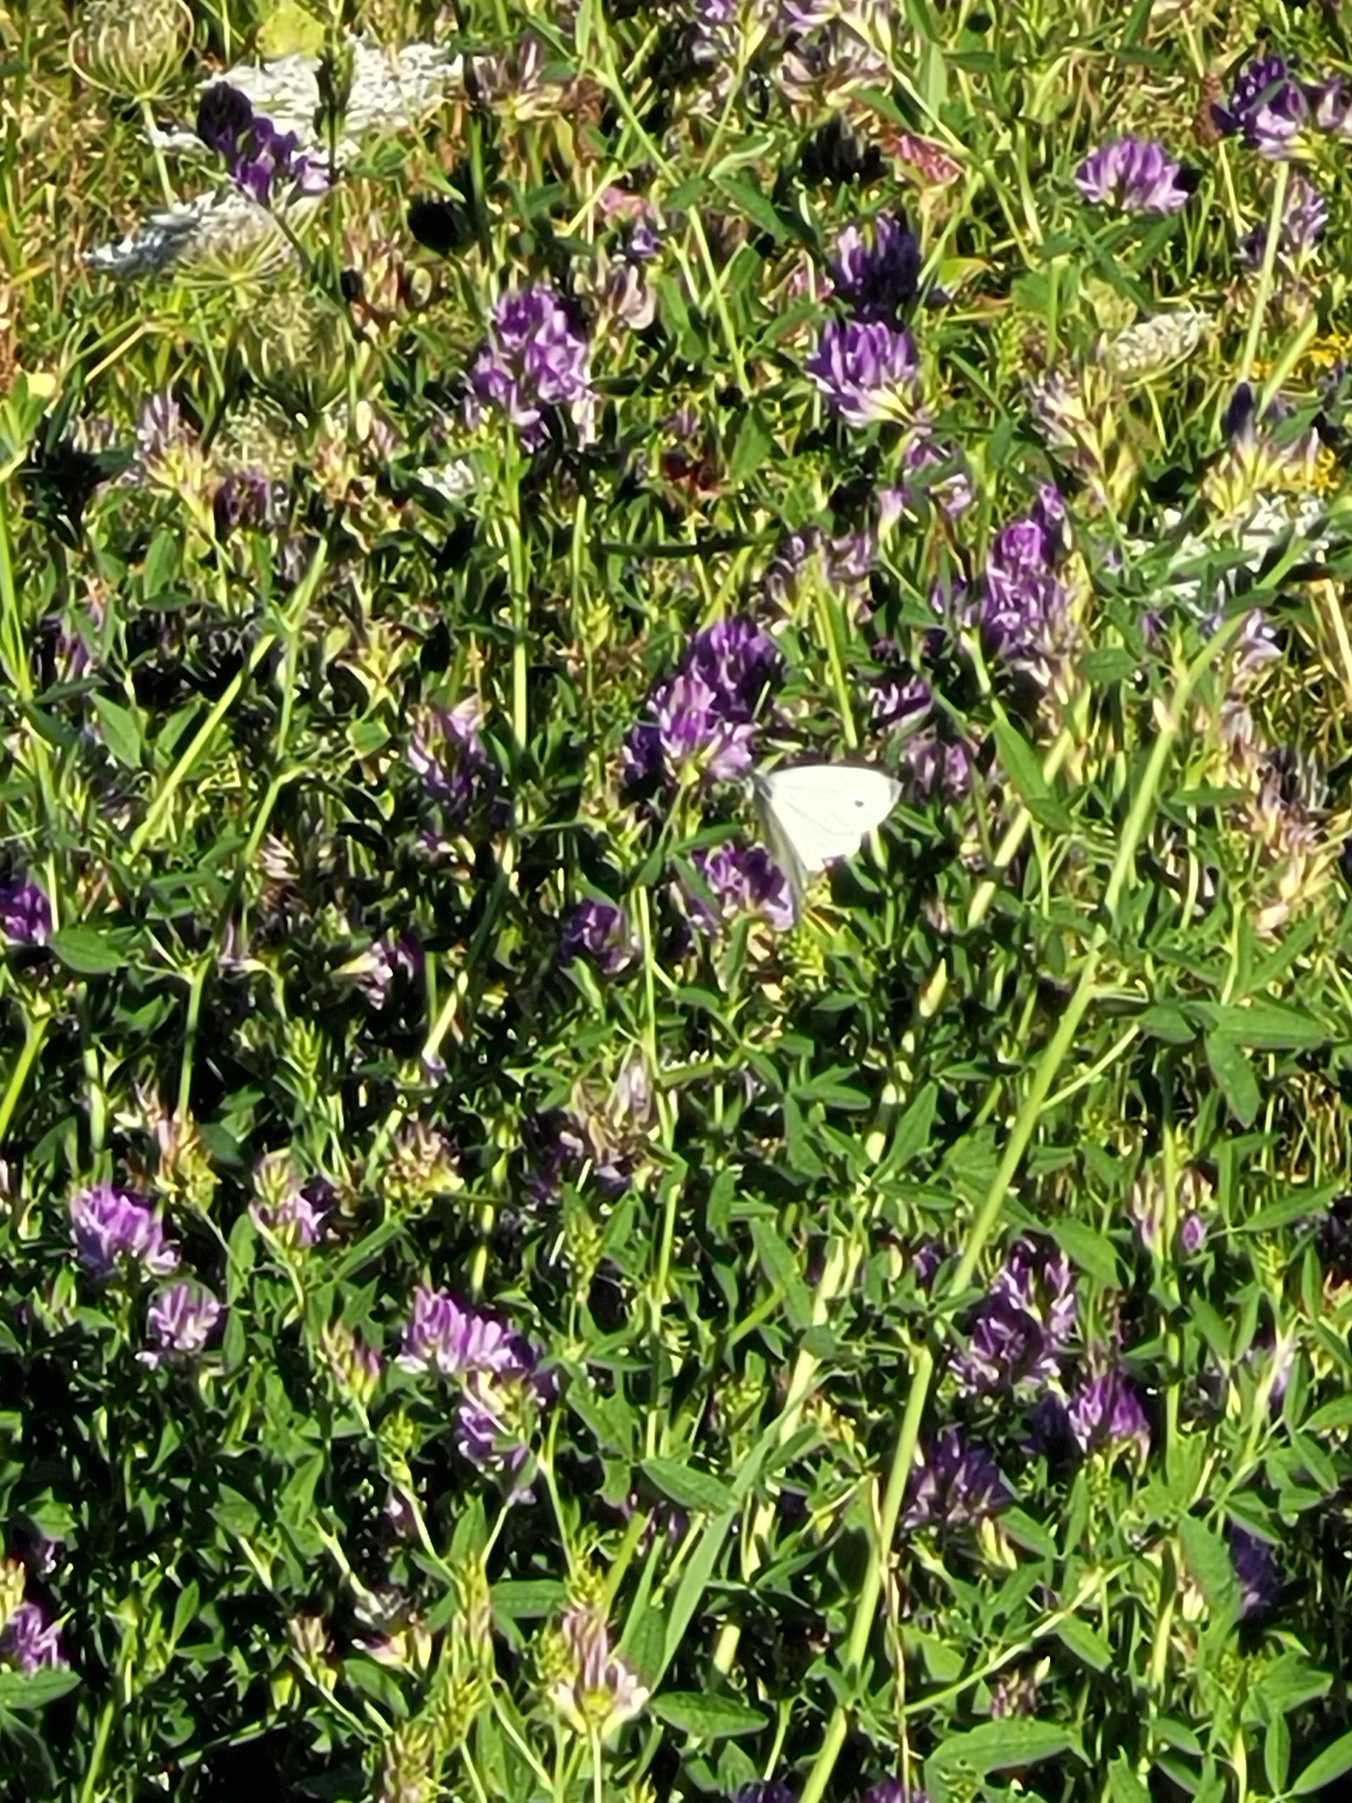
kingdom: Animalia
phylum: Arthropoda
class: Insecta
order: Lepidoptera
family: Pieridae
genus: Pieris
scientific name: Pieris rapae
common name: Lille kålsommerfugl
